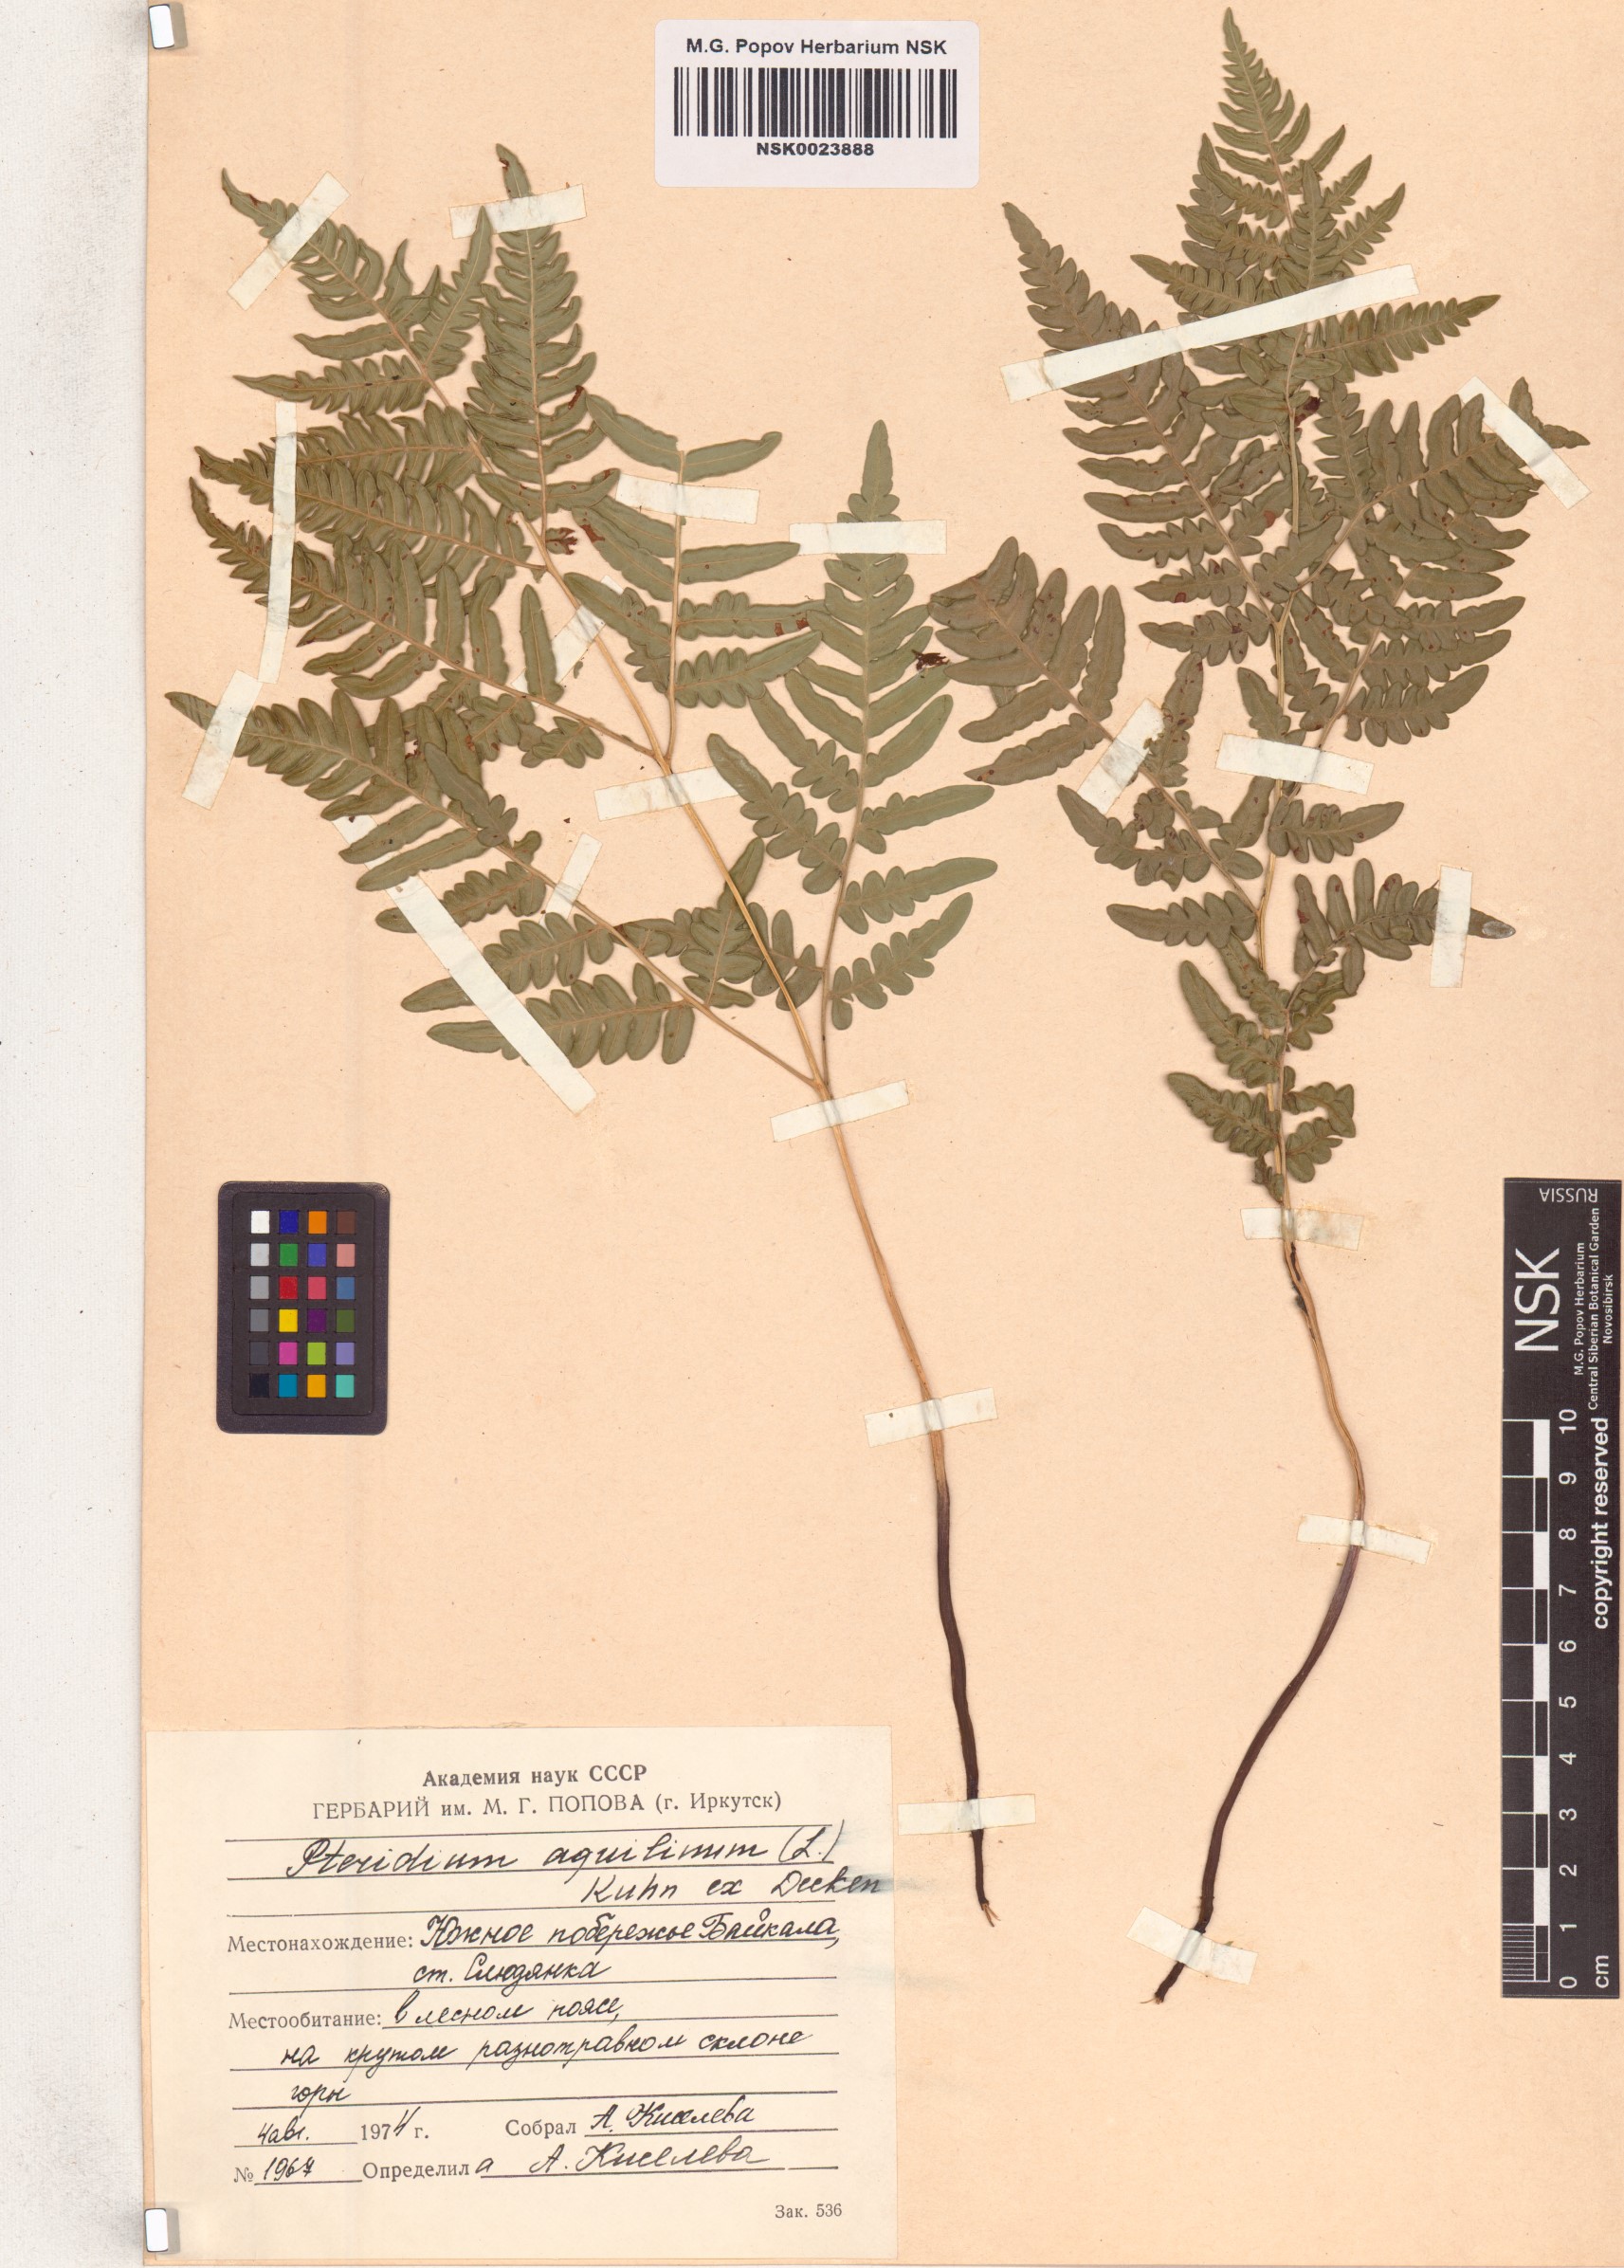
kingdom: Plantae
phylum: Tracheophyta
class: Polypodiopsida
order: Polypodiales
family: Dennstaedtiaceae
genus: Pteridium
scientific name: Pteridium aquilinum
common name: Bracken
